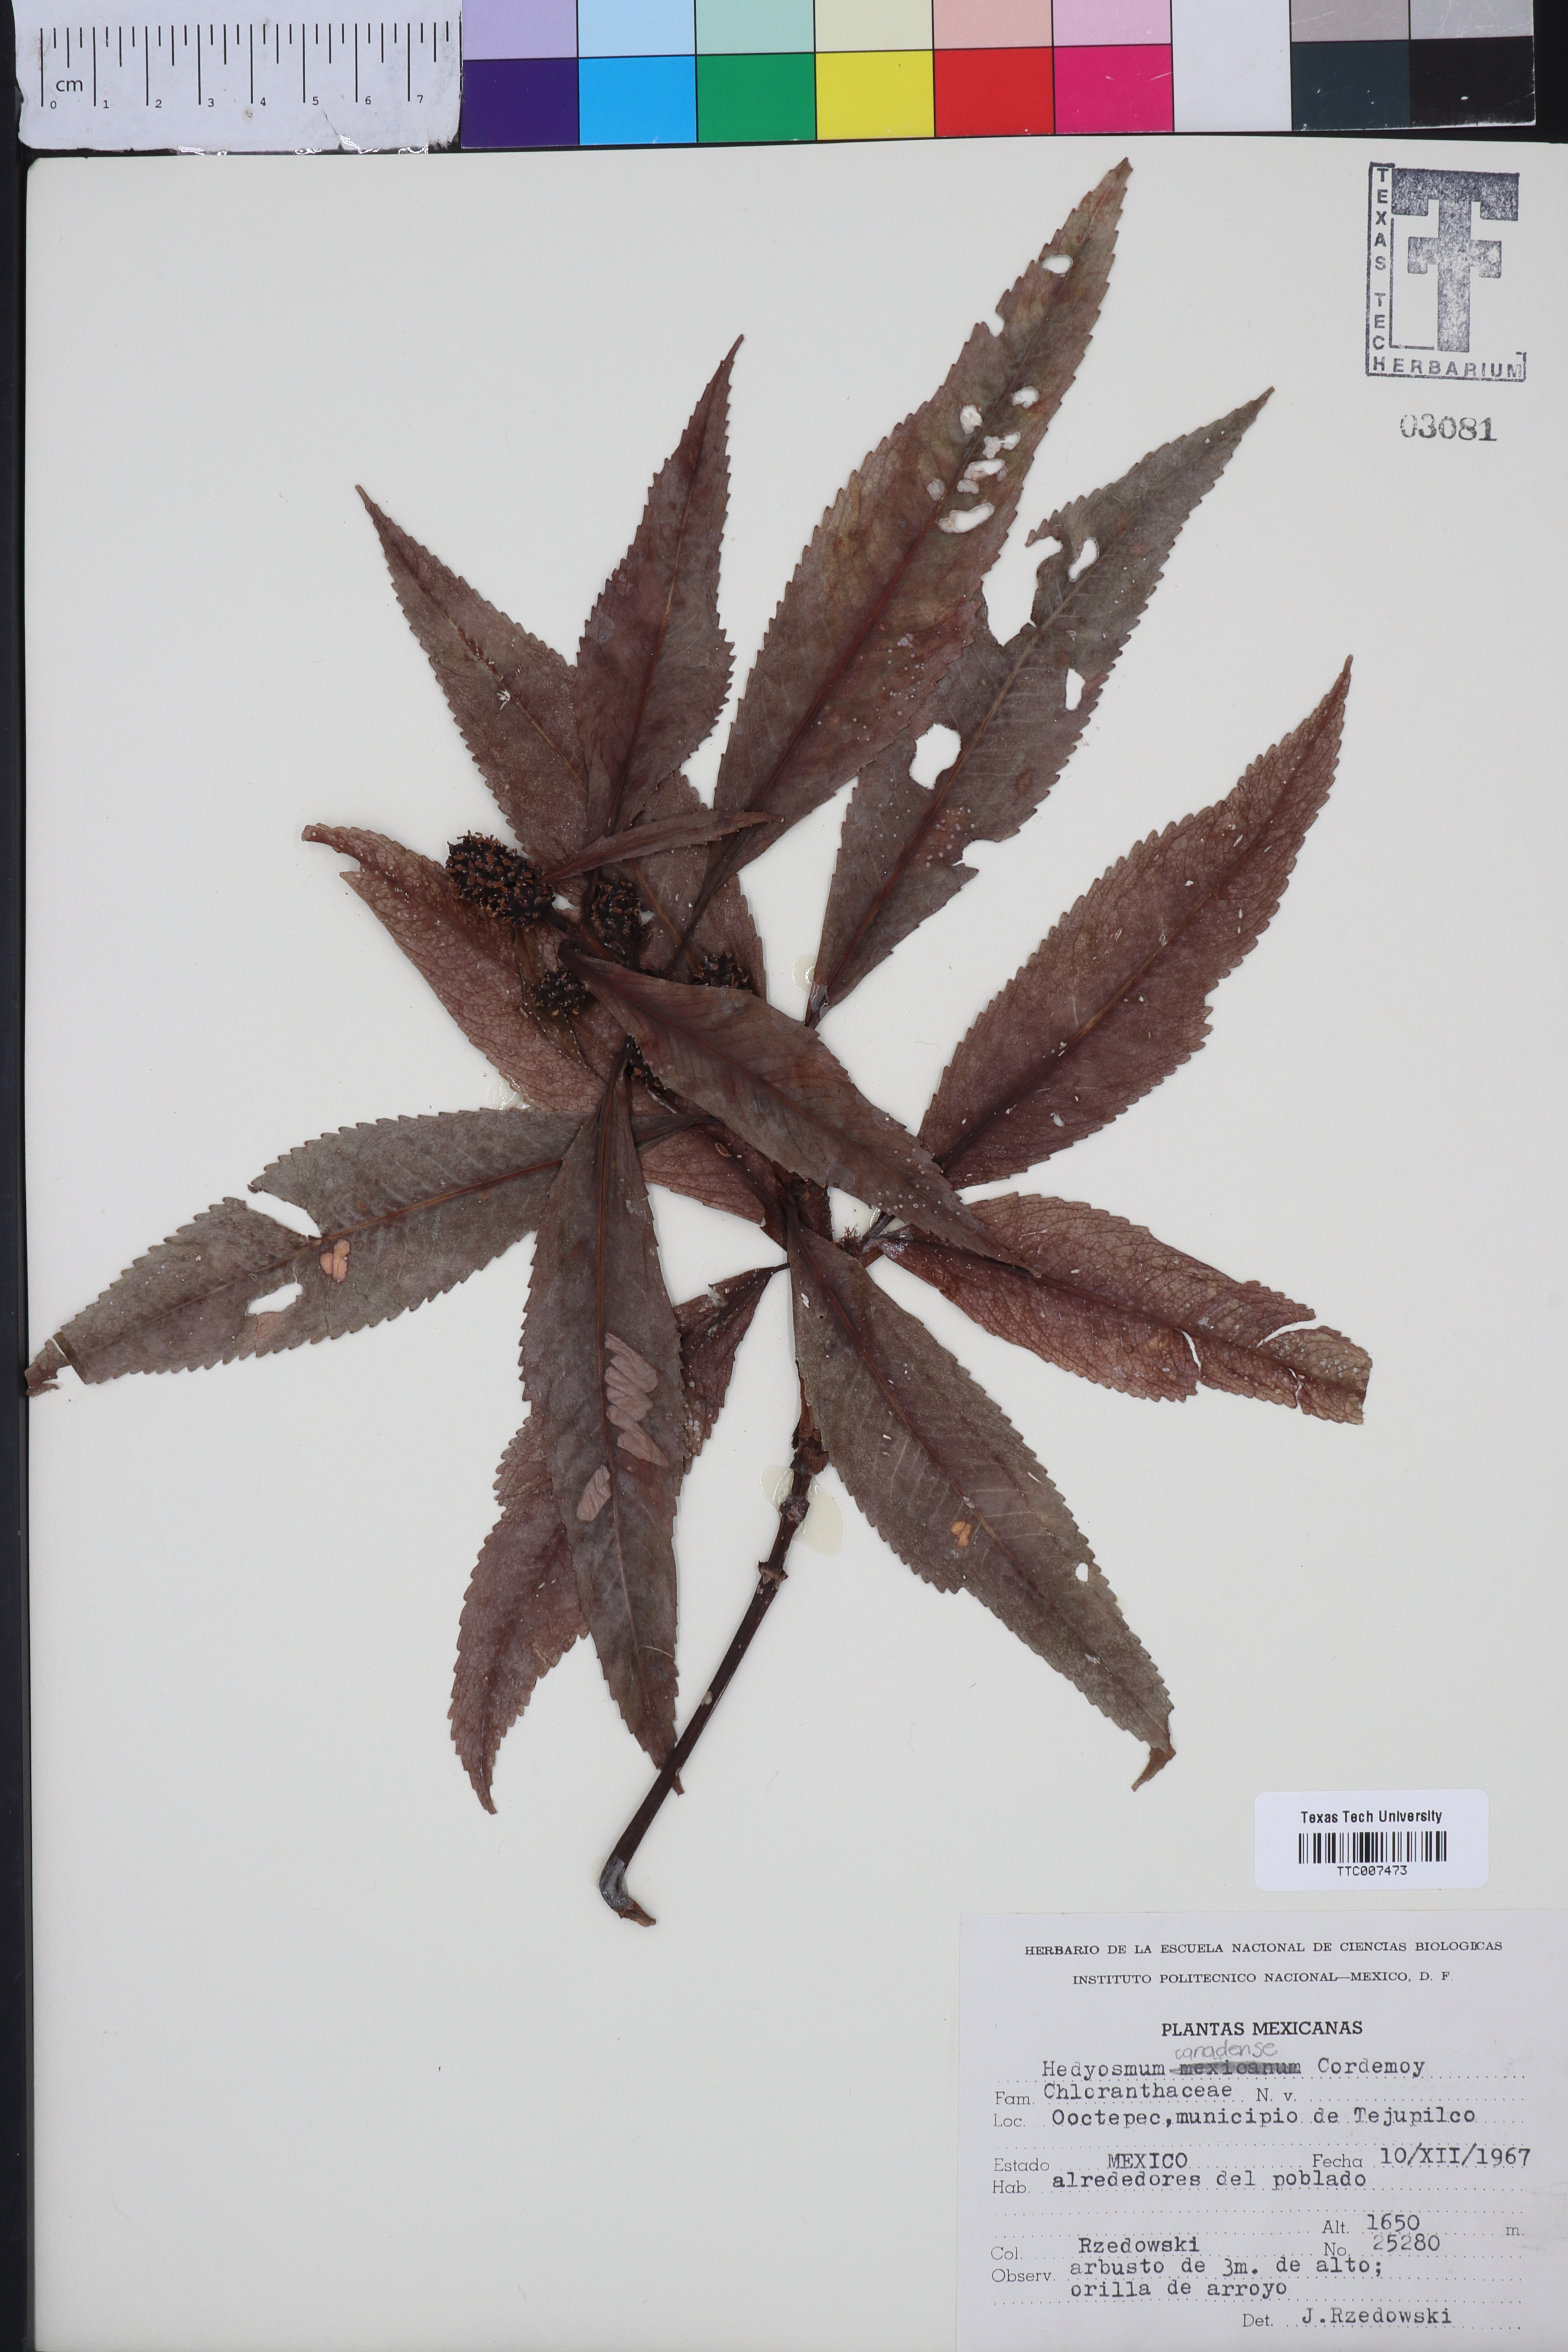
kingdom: Plantae
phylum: Tracheophyta
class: Magnoliopsida
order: Chloranthales
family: Chloranthaceae
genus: Hedyosmum
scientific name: Hedyosmum mexicanum
